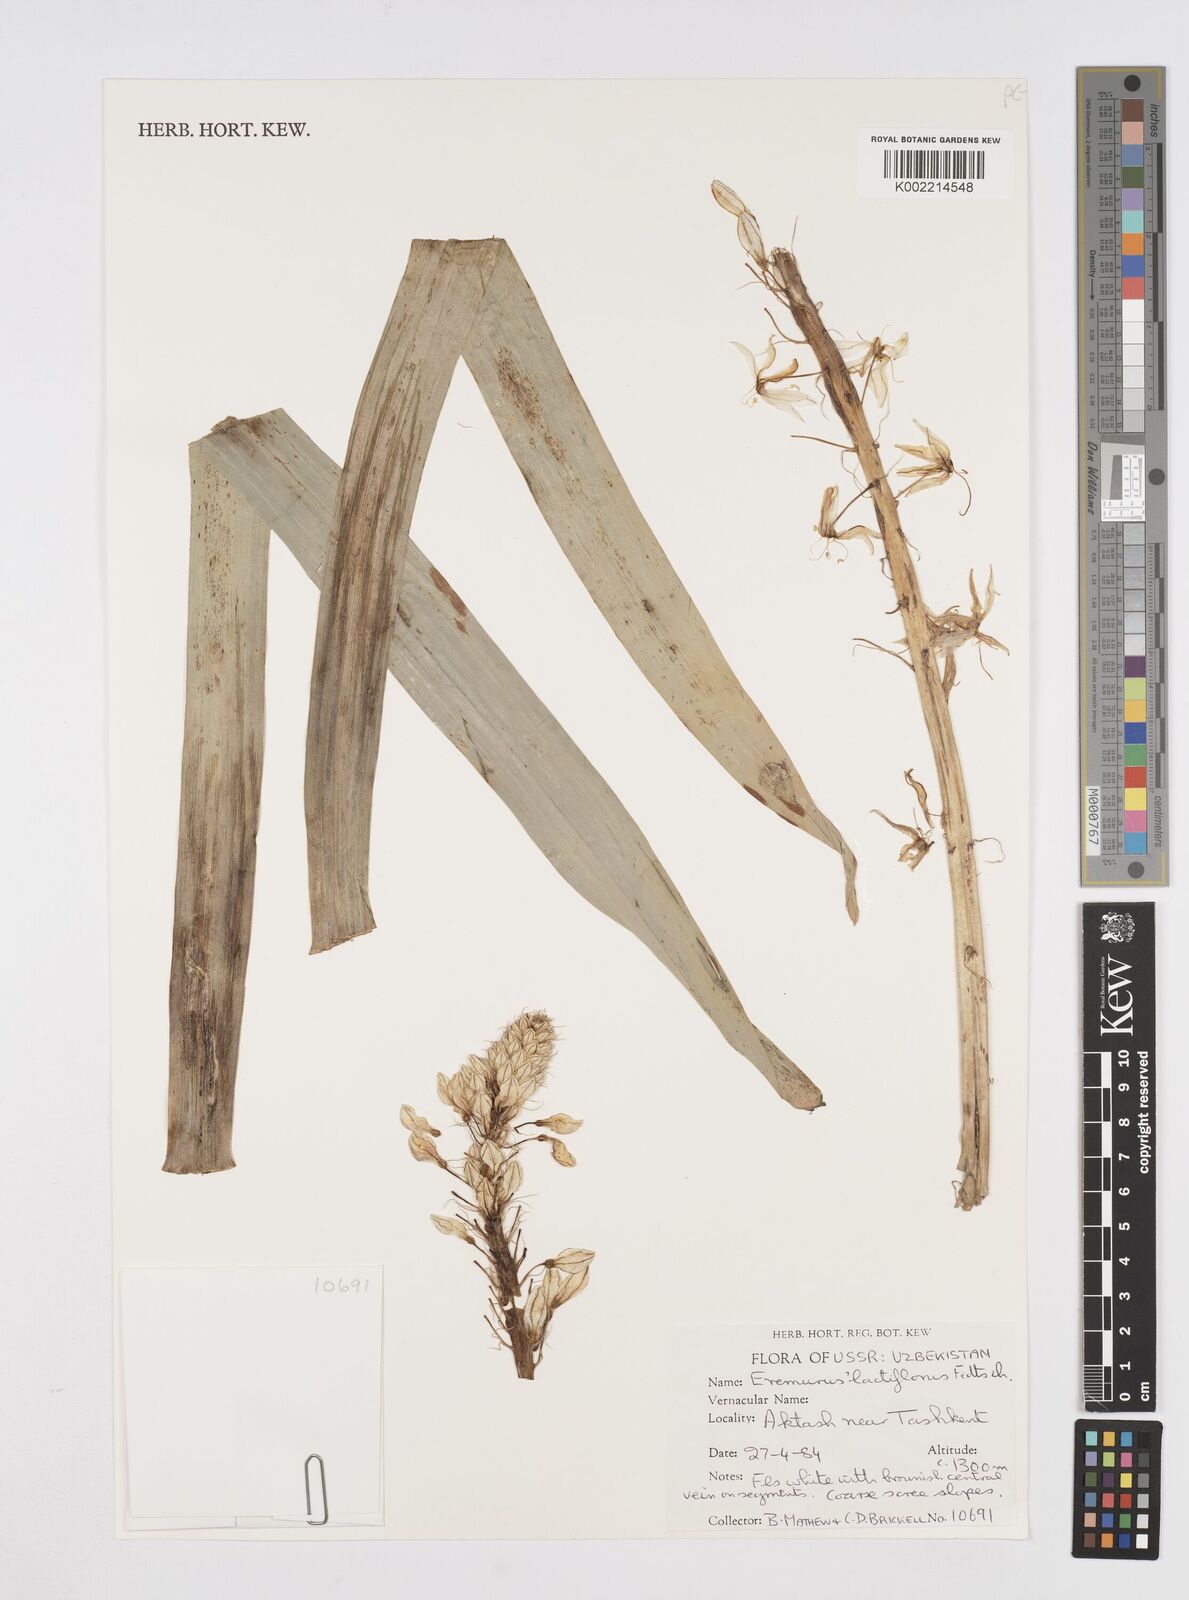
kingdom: Plantae
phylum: Tracheophyta
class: Liliopsida
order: Asparagales
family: Asphodelaceae
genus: Eremurus
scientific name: Eremurus lactiflorus
